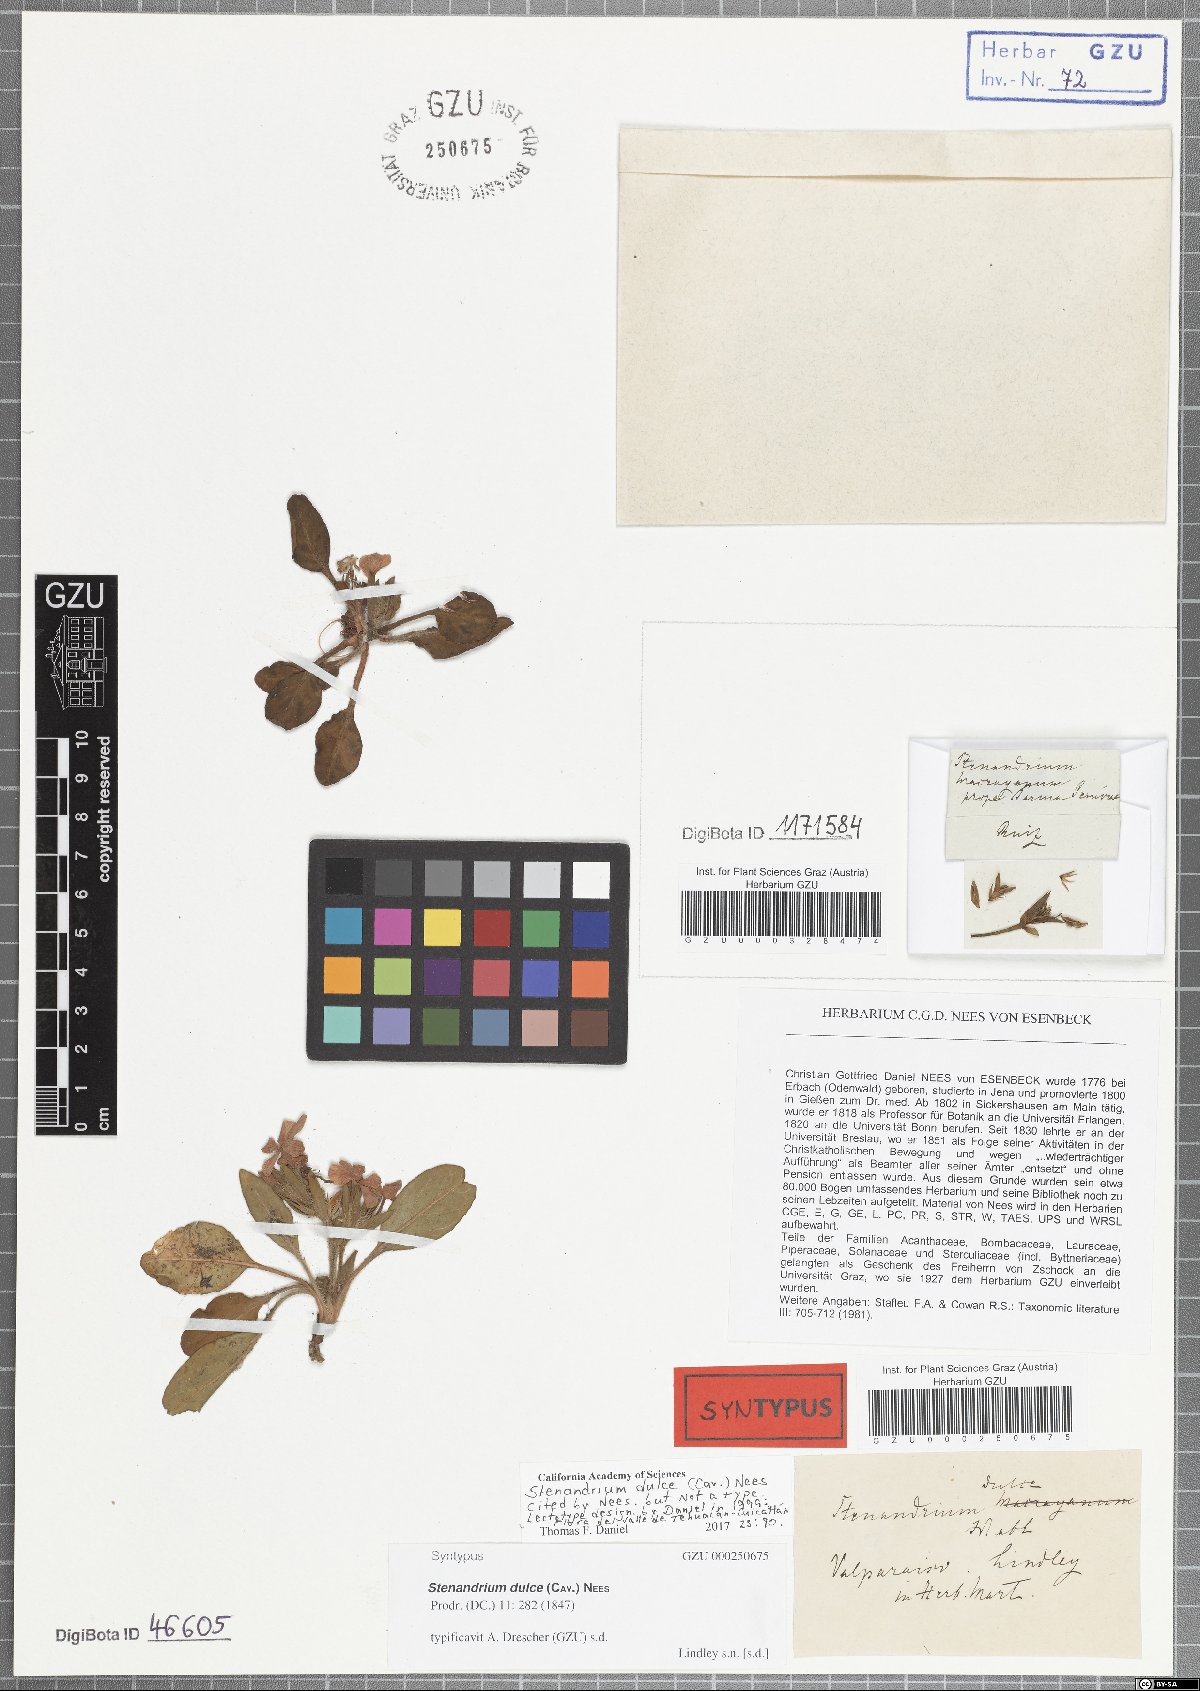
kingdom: Plantae
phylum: Tracheophyta
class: Magnoliopsida
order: Lamiales
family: Acanthaceae
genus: Stenandrium
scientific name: Stenandrium dulce
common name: Pinklet
